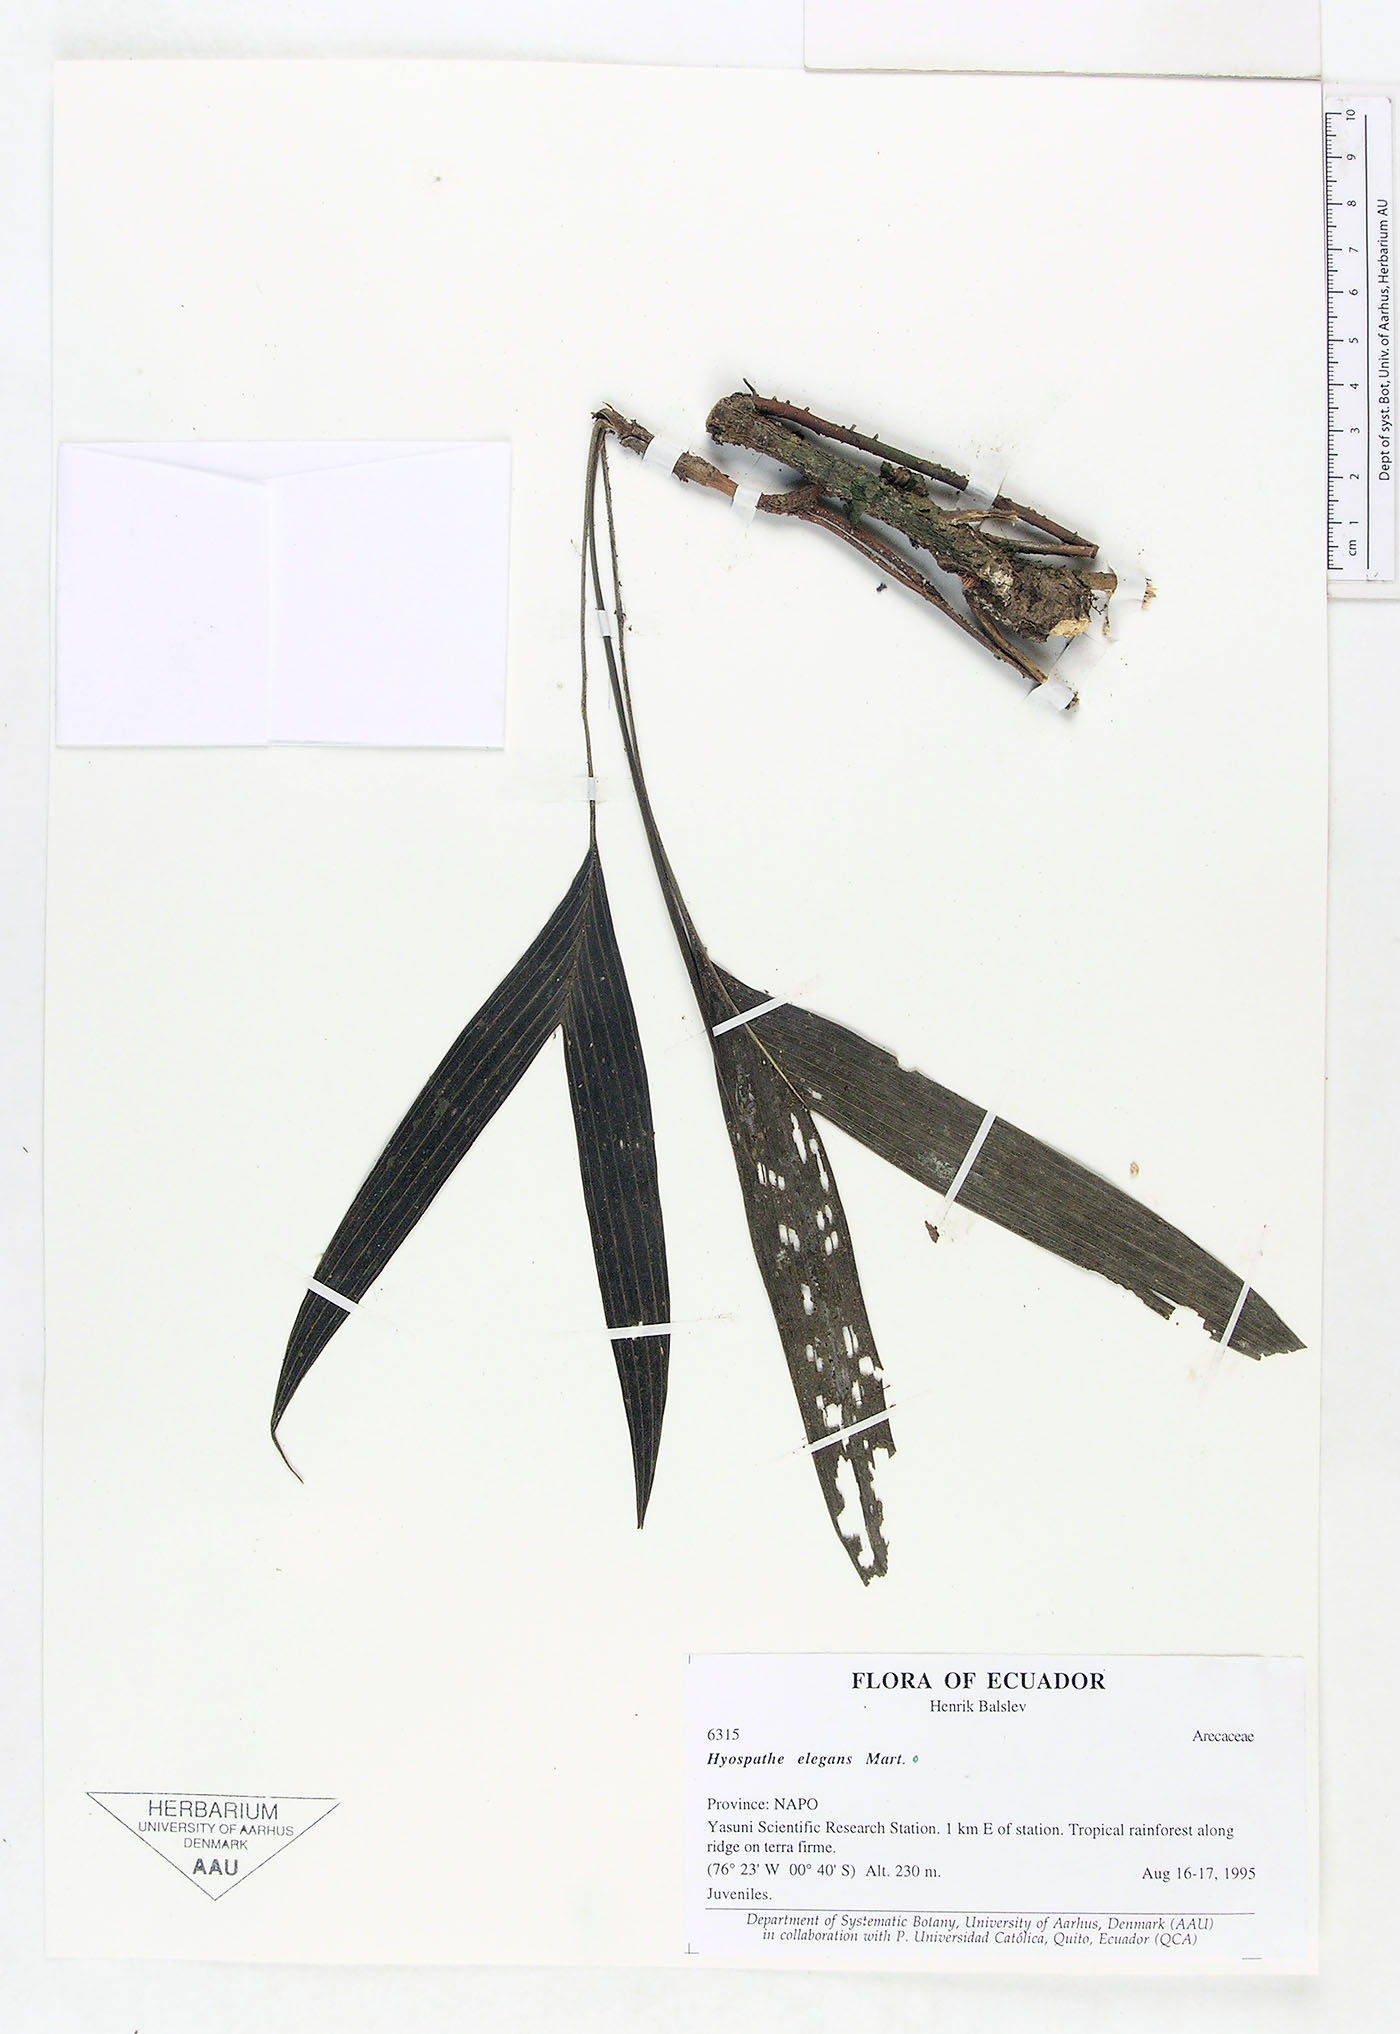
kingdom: Plantae
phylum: Tracheophyta
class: Liliopsida
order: Arecales
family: Arecaceae
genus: Hyospathe
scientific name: Hyospathe elegans
